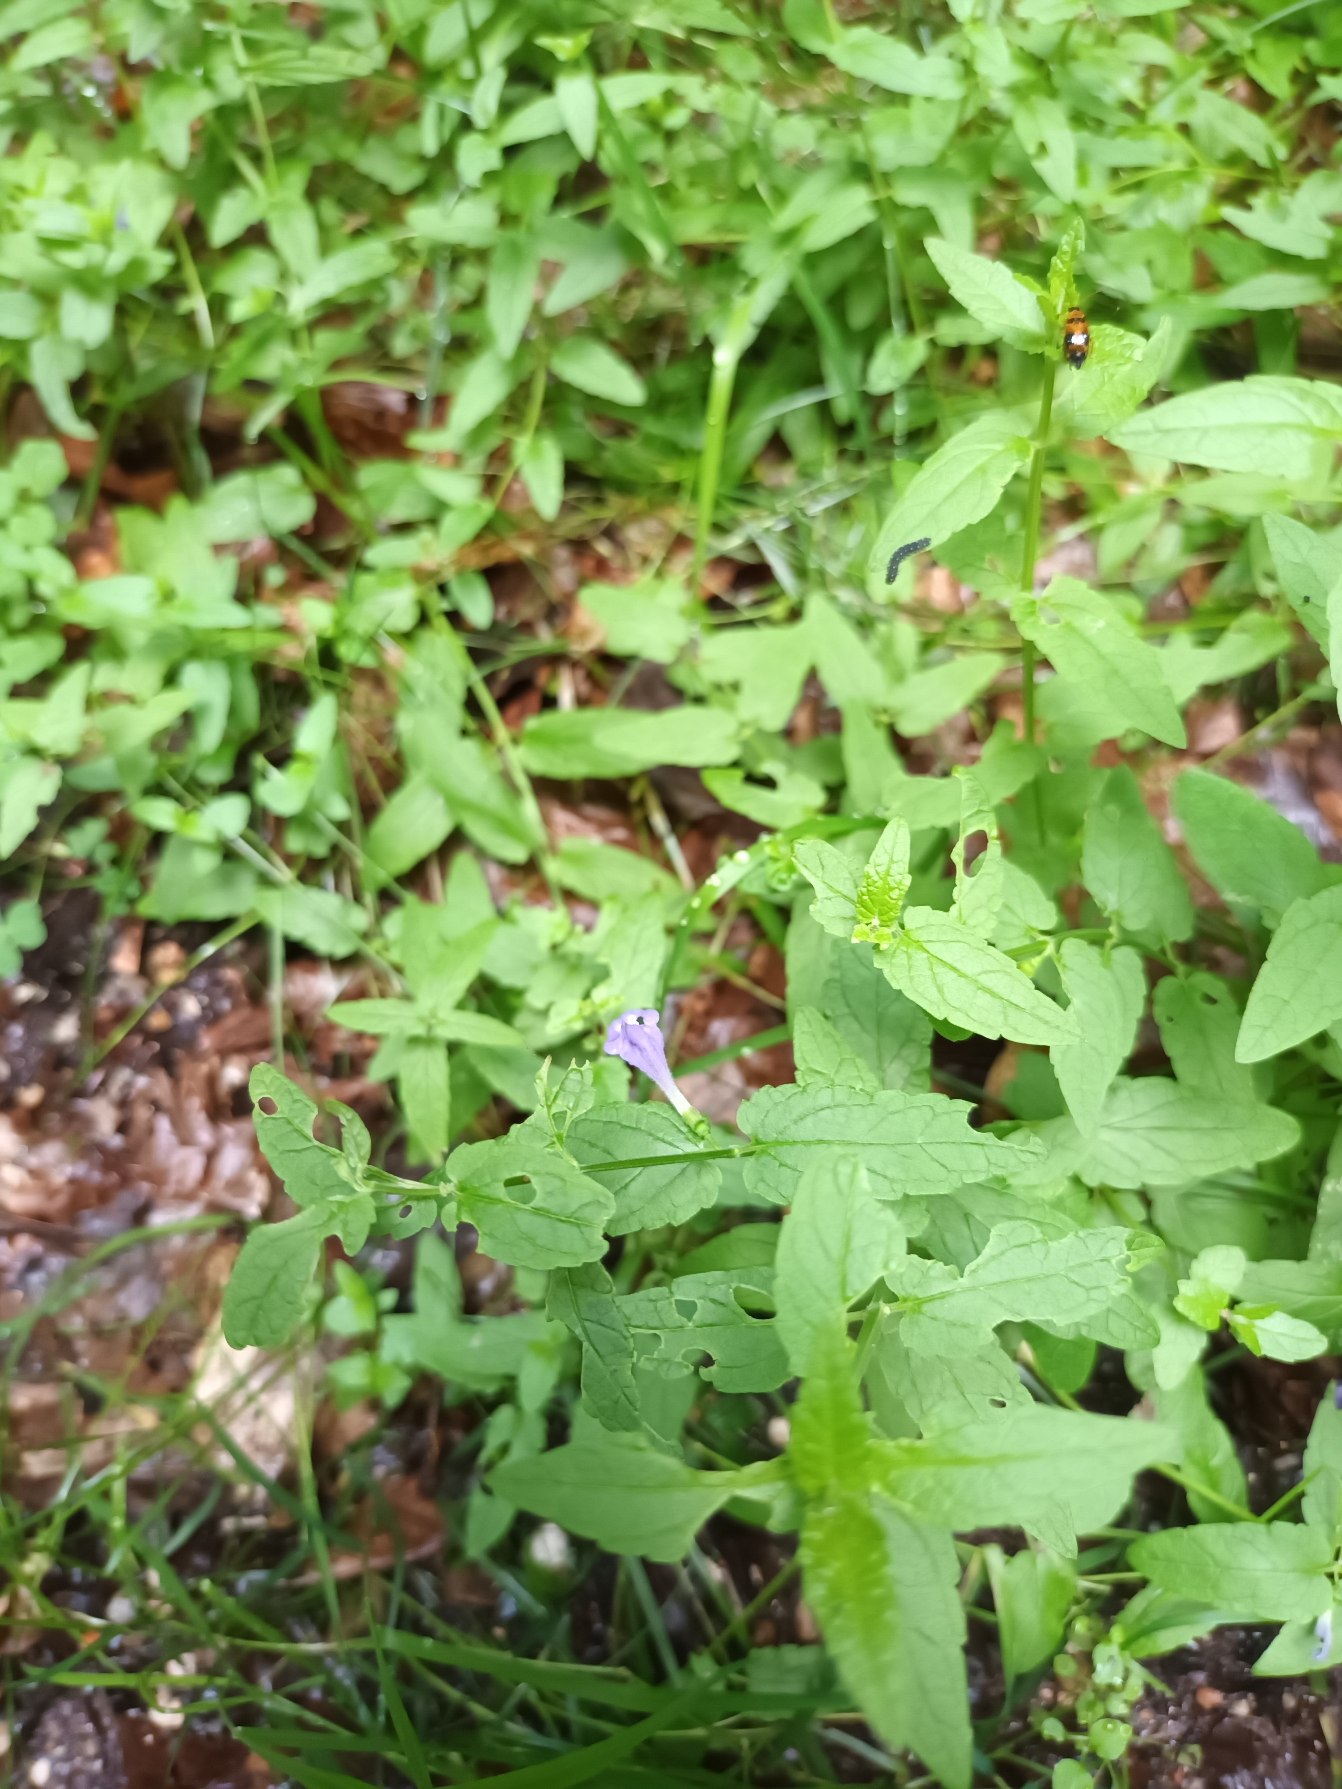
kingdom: Plantae
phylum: Tracheophyta
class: Magnoliopsida
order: Lamiales
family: Lamiaceae
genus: Scutellaria
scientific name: Scutellaria galericulata
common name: Almindelig skjolddrager
